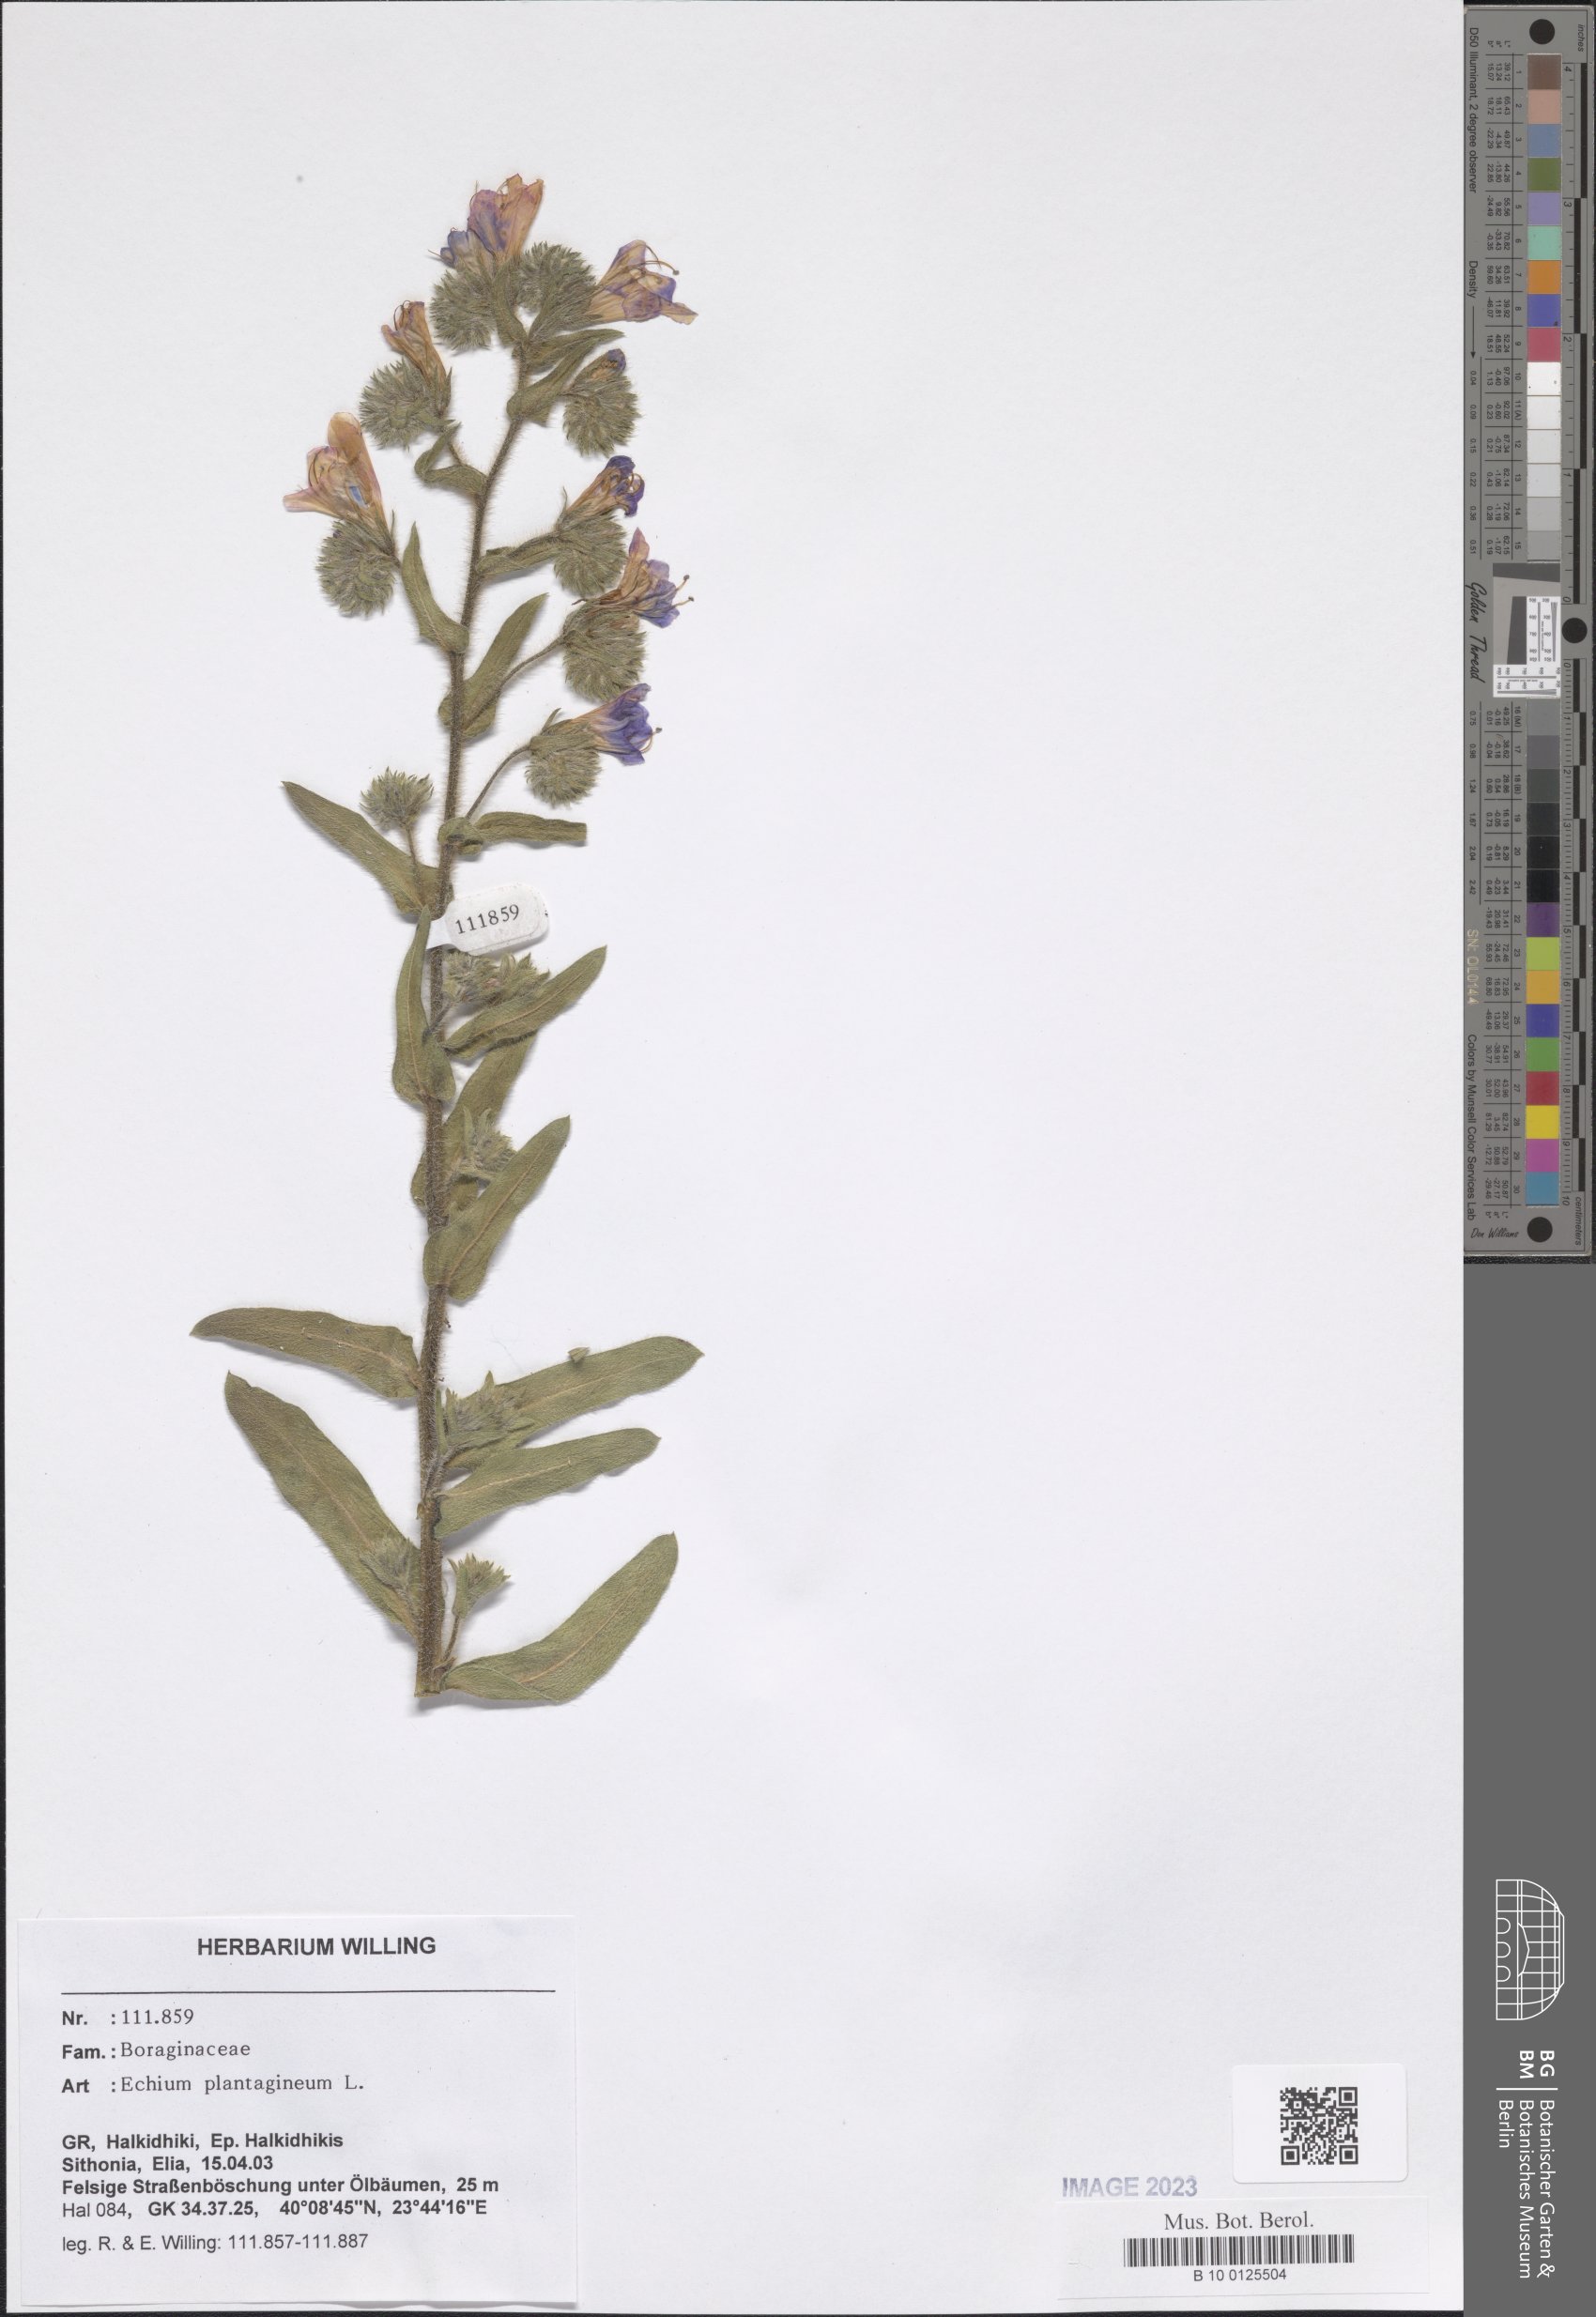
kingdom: Plantae
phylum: Tracheophyta
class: Magnoliopsida
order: Boraginales
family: Boraginaceae
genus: Echium
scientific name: Echium plantagineum
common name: Purple viper's-bugloss
